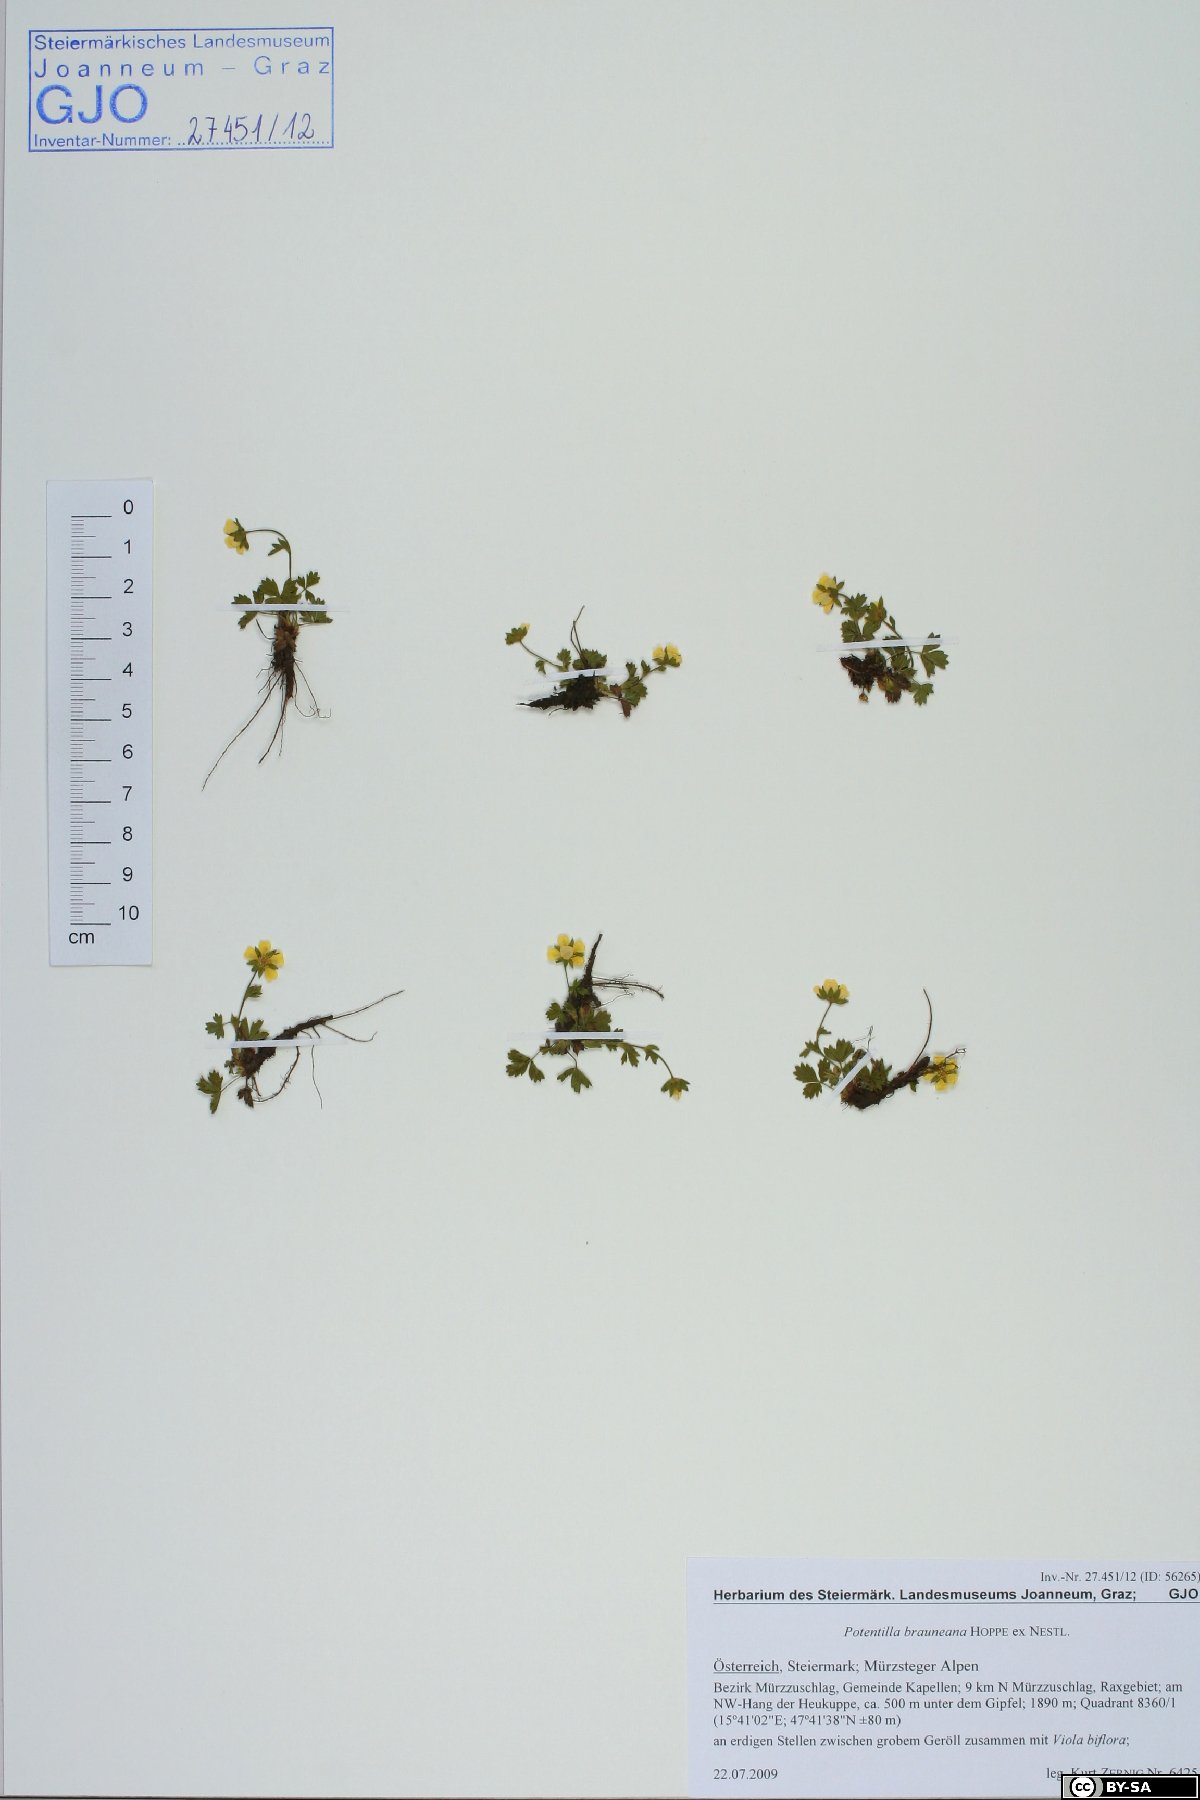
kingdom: Plantae
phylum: Tracheophyta
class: Magnoliopsida
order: Rosales
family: Rosaceae
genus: Potentilla
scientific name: Potentilla brauneana
